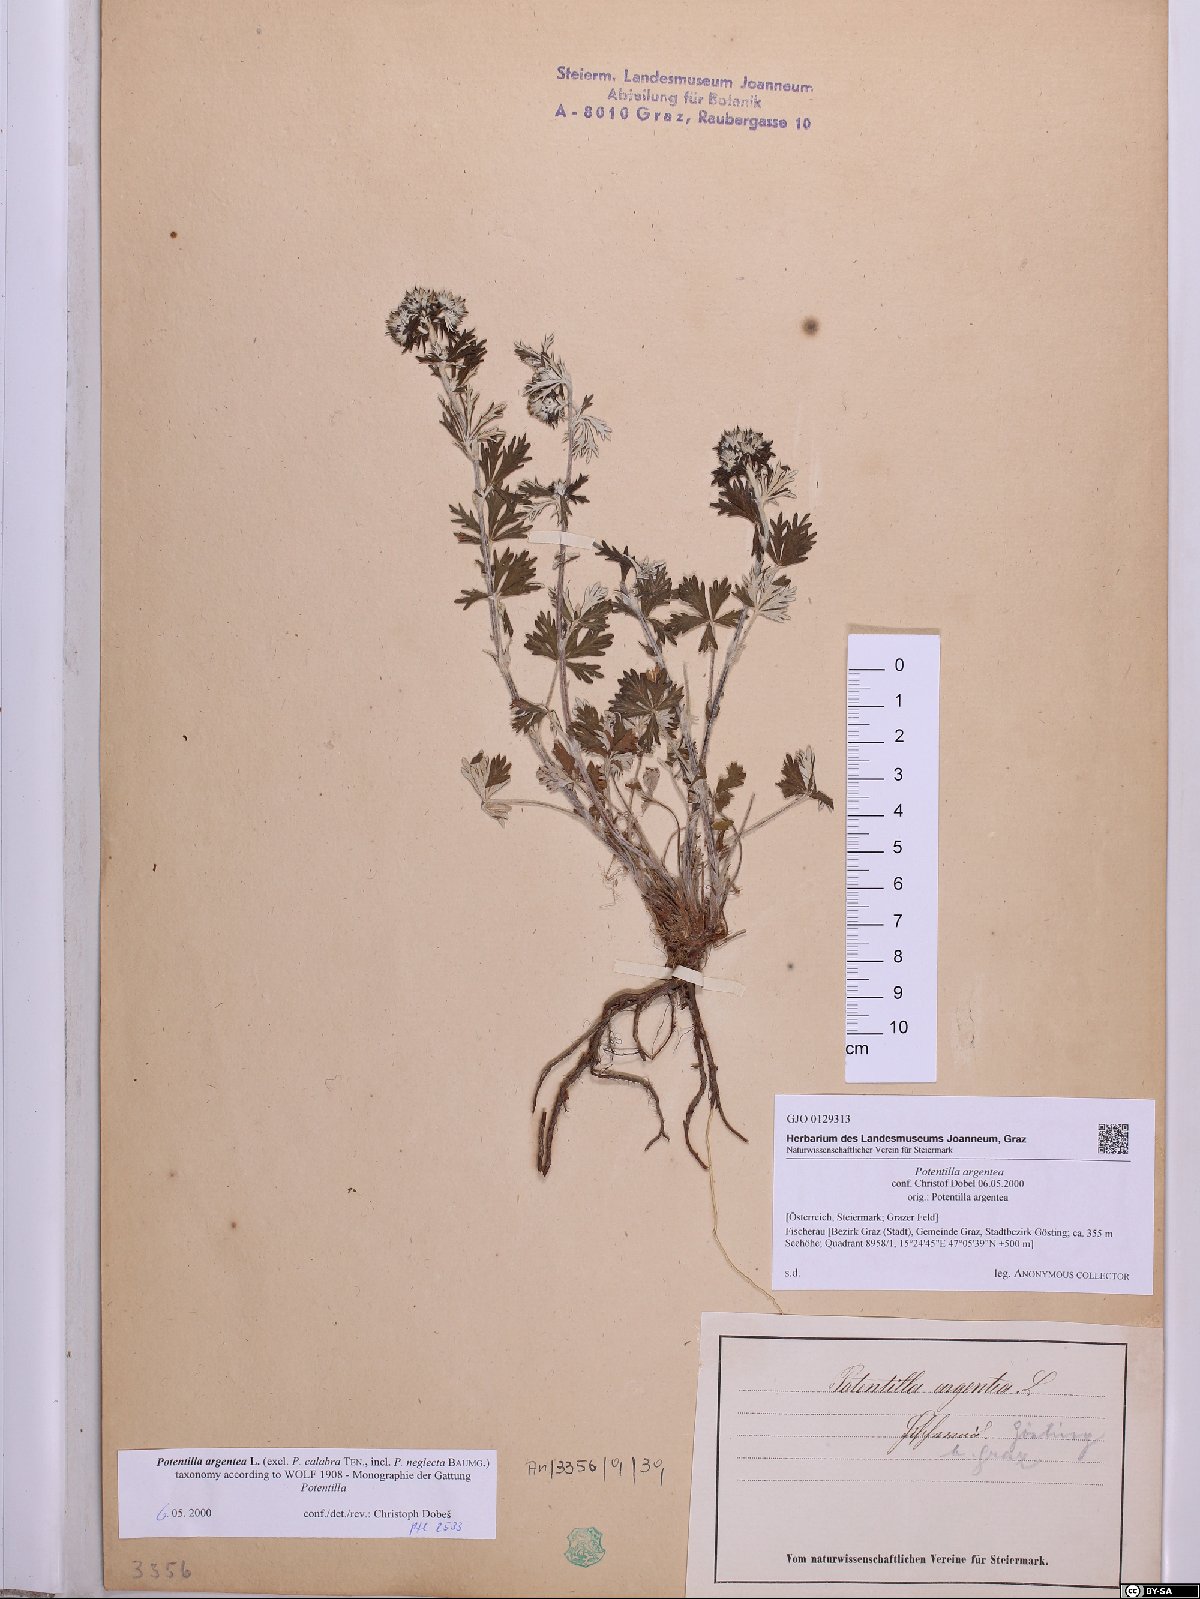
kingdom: Plantae
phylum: Tracheophyta
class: Magnoliopsida
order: Rosales
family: Rosaceae
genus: Potentilla
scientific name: Potentilla argentea
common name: Hoary cinquefoil
